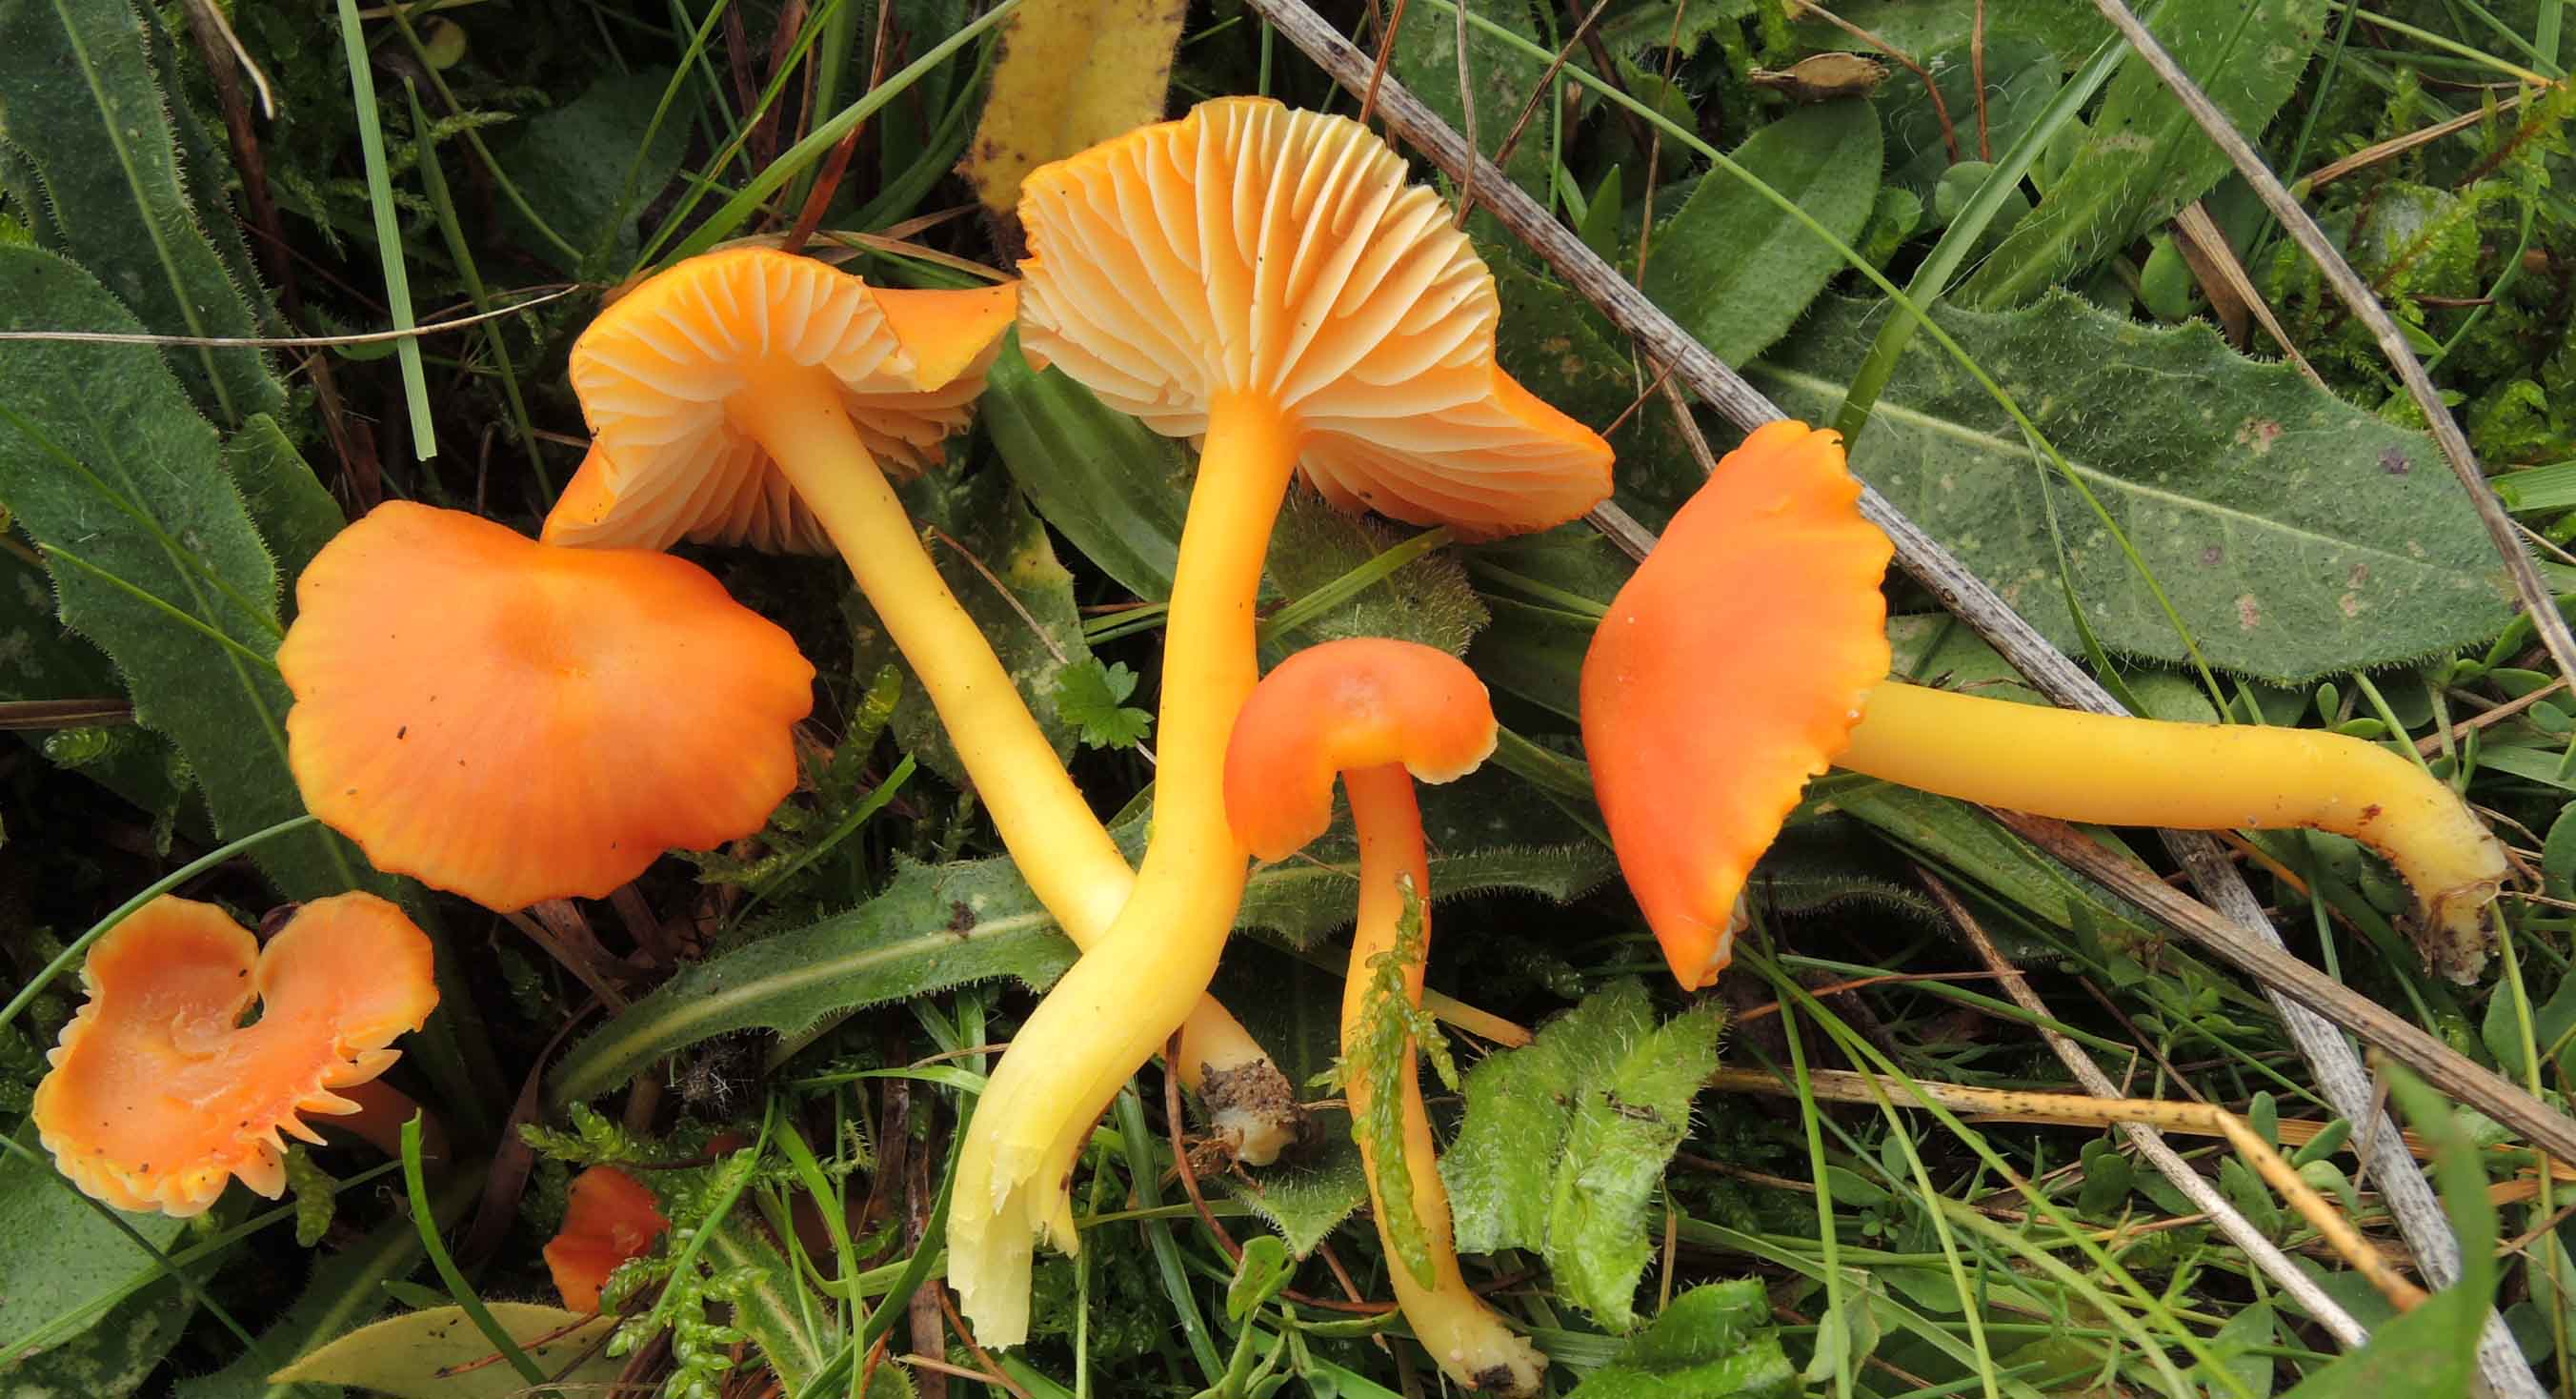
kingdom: Fungi
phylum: Basidiomycota
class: Agaricomycetes
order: Agaricales
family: Hygrophoraceae
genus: Hygrocybe
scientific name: Hygrocybe reidii
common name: honning-vokshat
